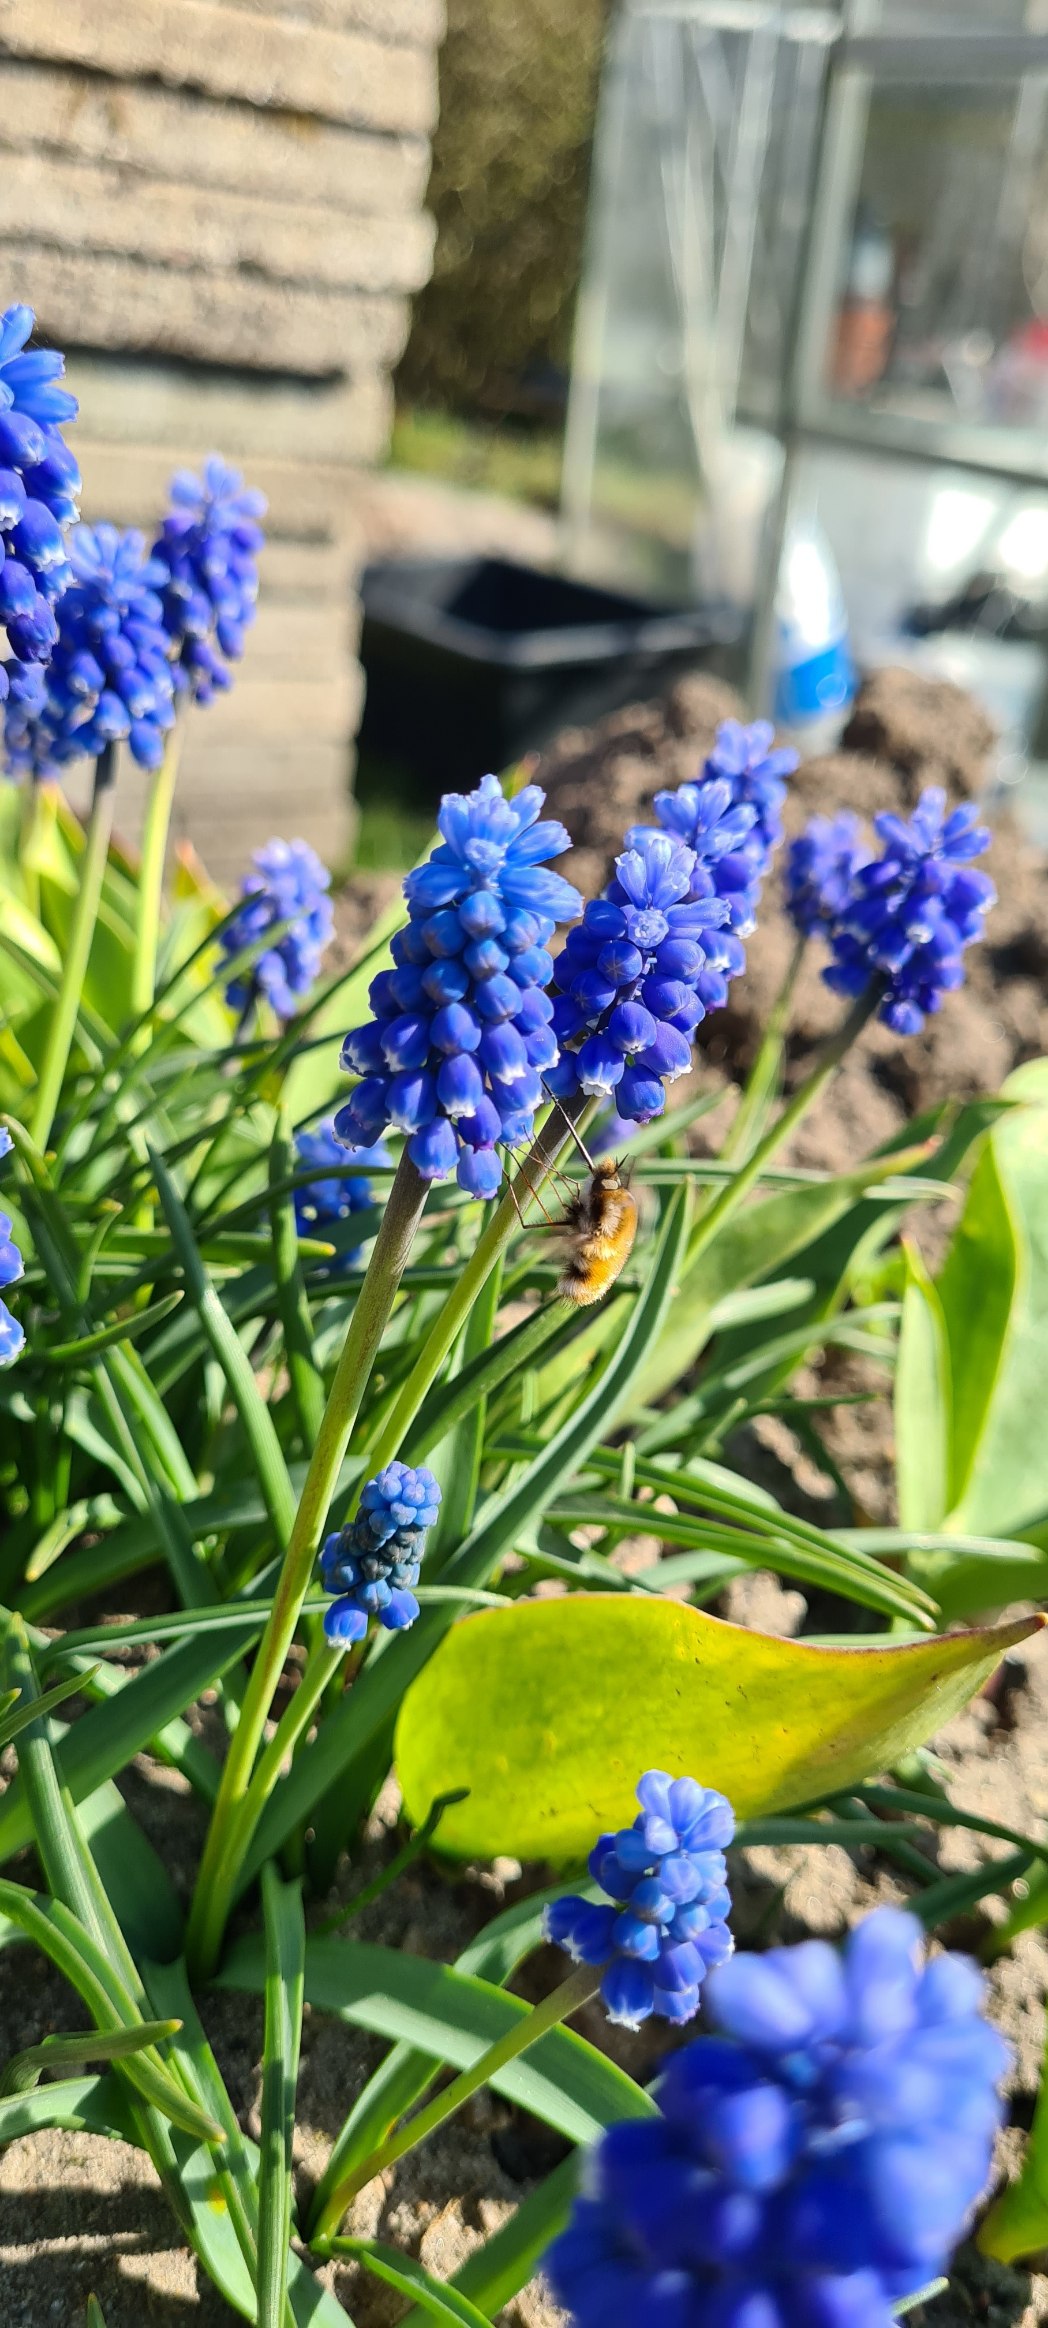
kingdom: Animalia
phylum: Arthropoda
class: Insecta
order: Diptera
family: Bombyliidae
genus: Bombylius
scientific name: Bombylius major
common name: Stor humleflue
